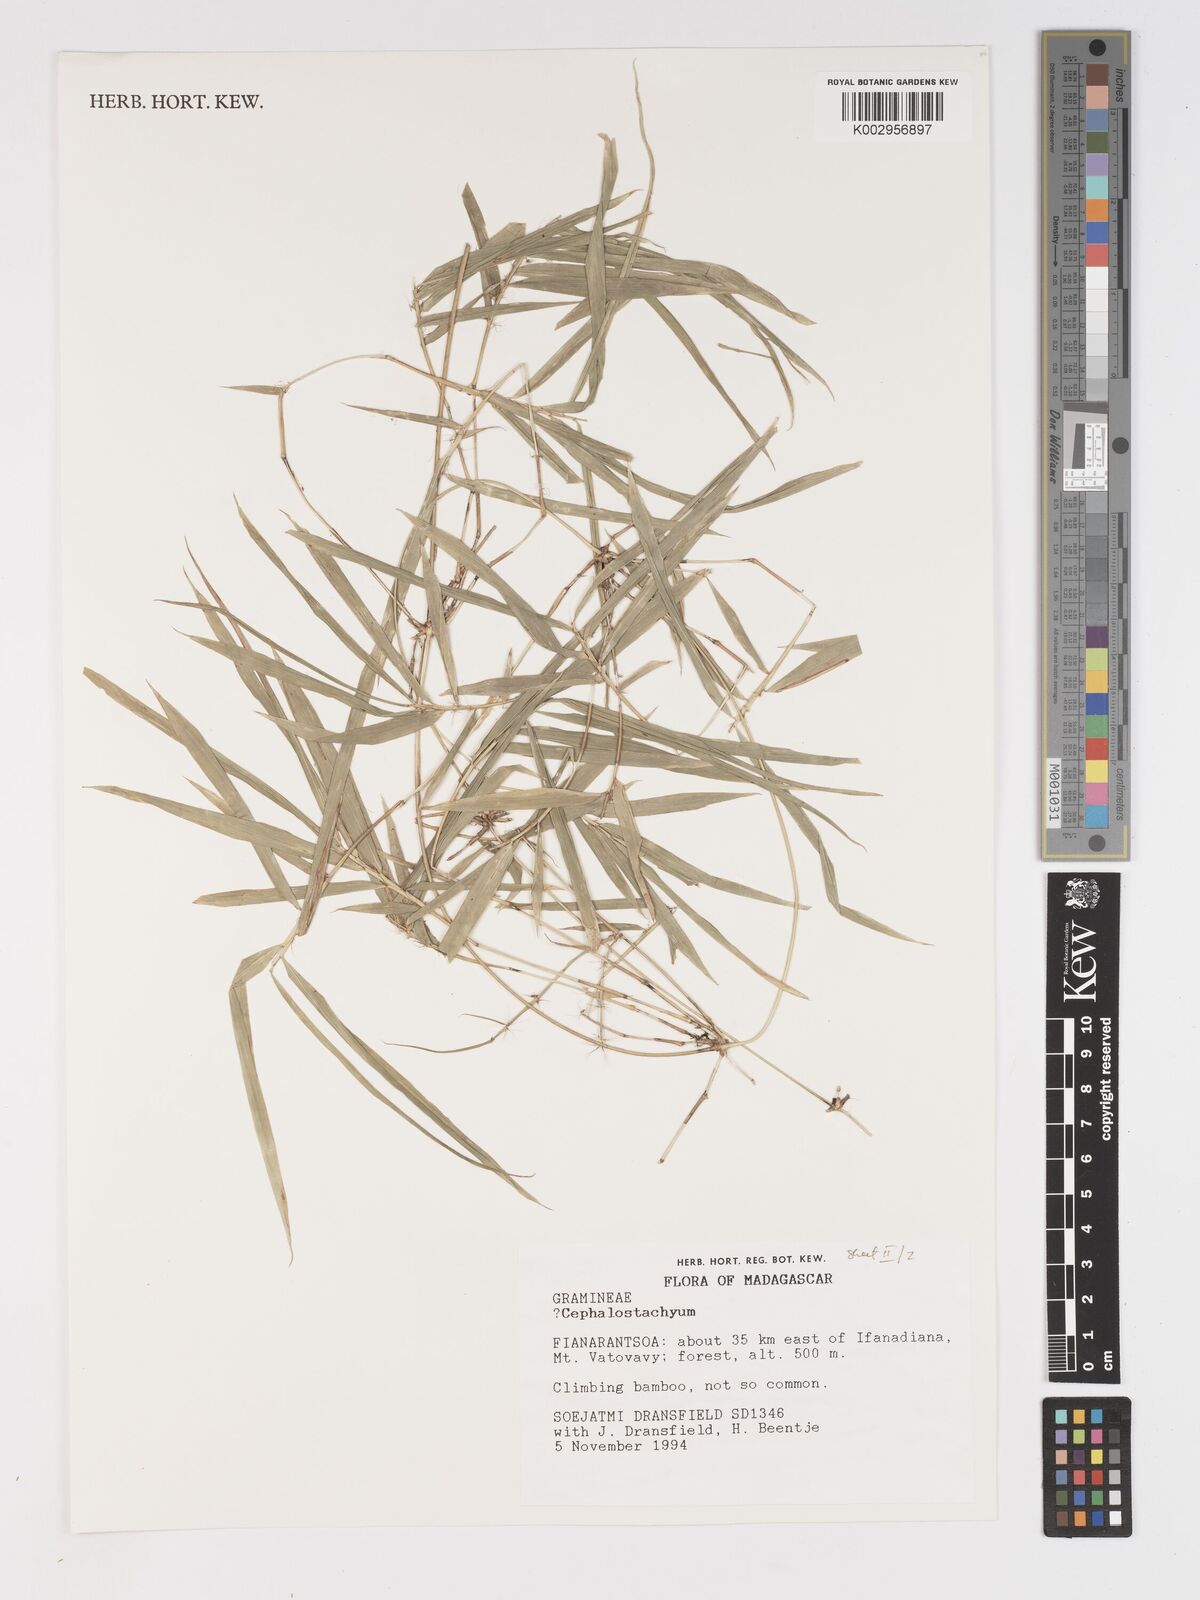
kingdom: Plantae
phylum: Tracheophyta
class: Liliopsida
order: Poales
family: Poaceae
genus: Sirochloa
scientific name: Sirochloa
